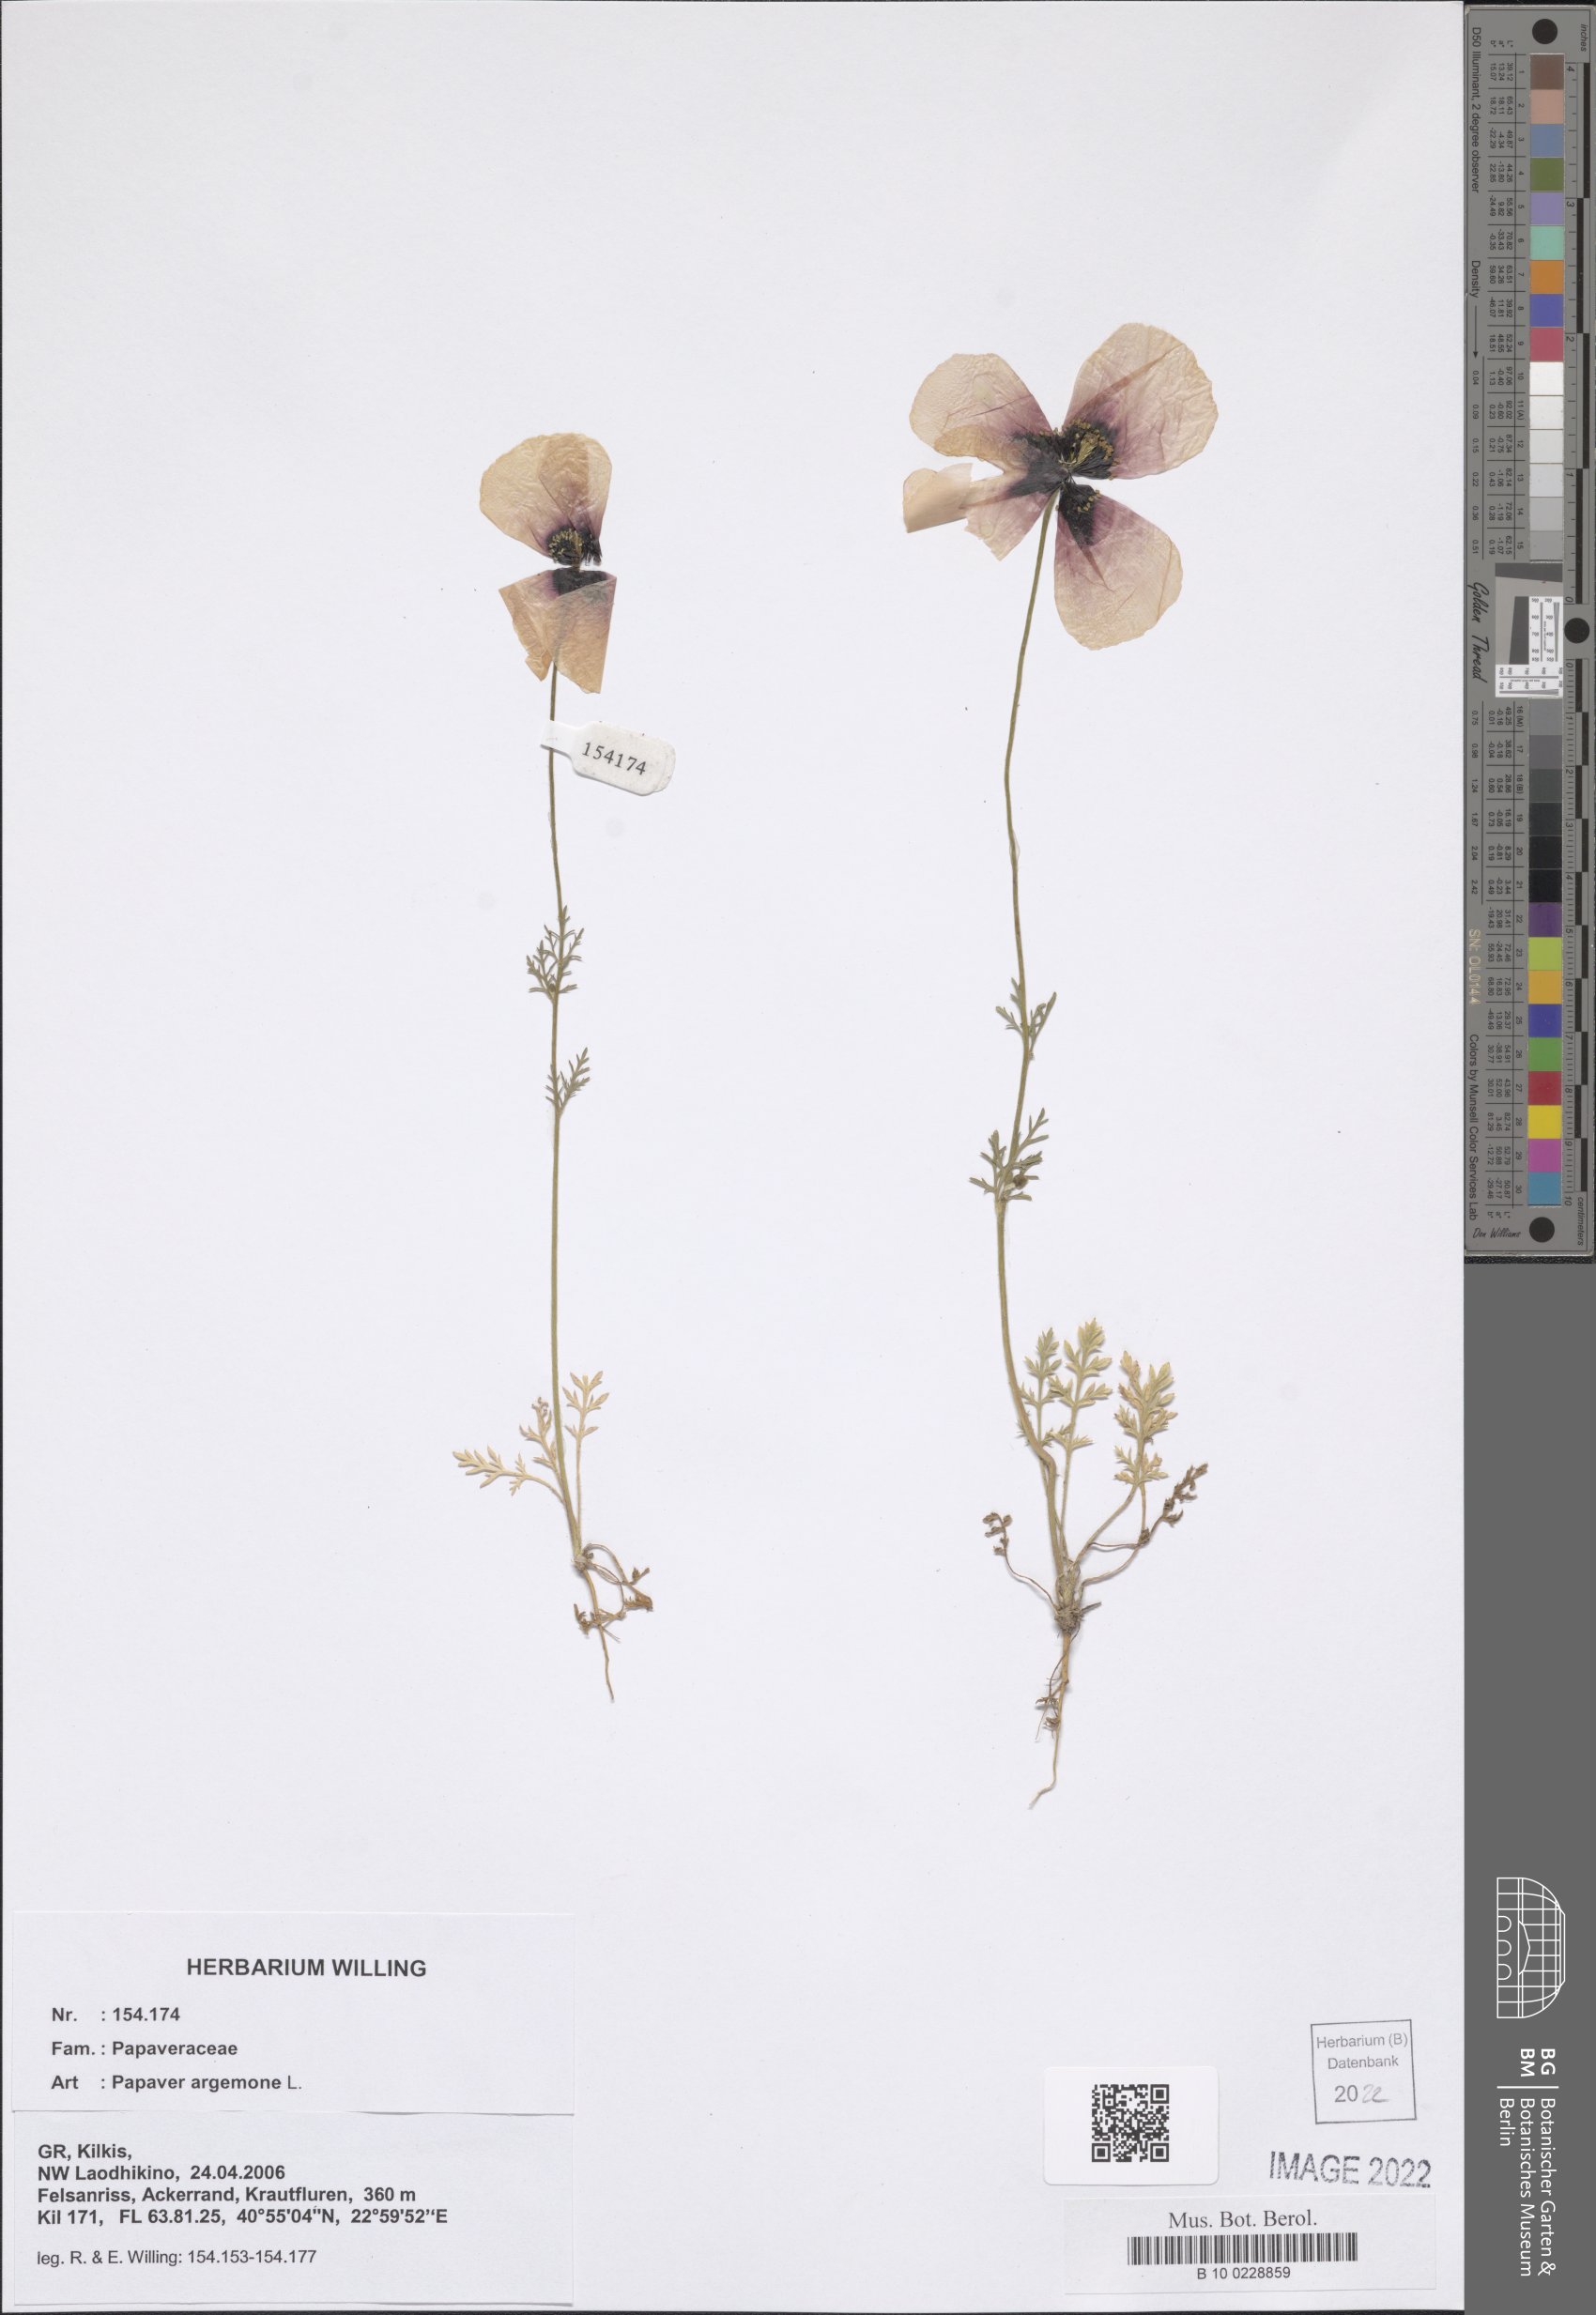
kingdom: Plantae
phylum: Tracheophyta
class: Magnoliopsida
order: Ranunculales
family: Papaveraceae
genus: Roemeria
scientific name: Roemeria argemone
